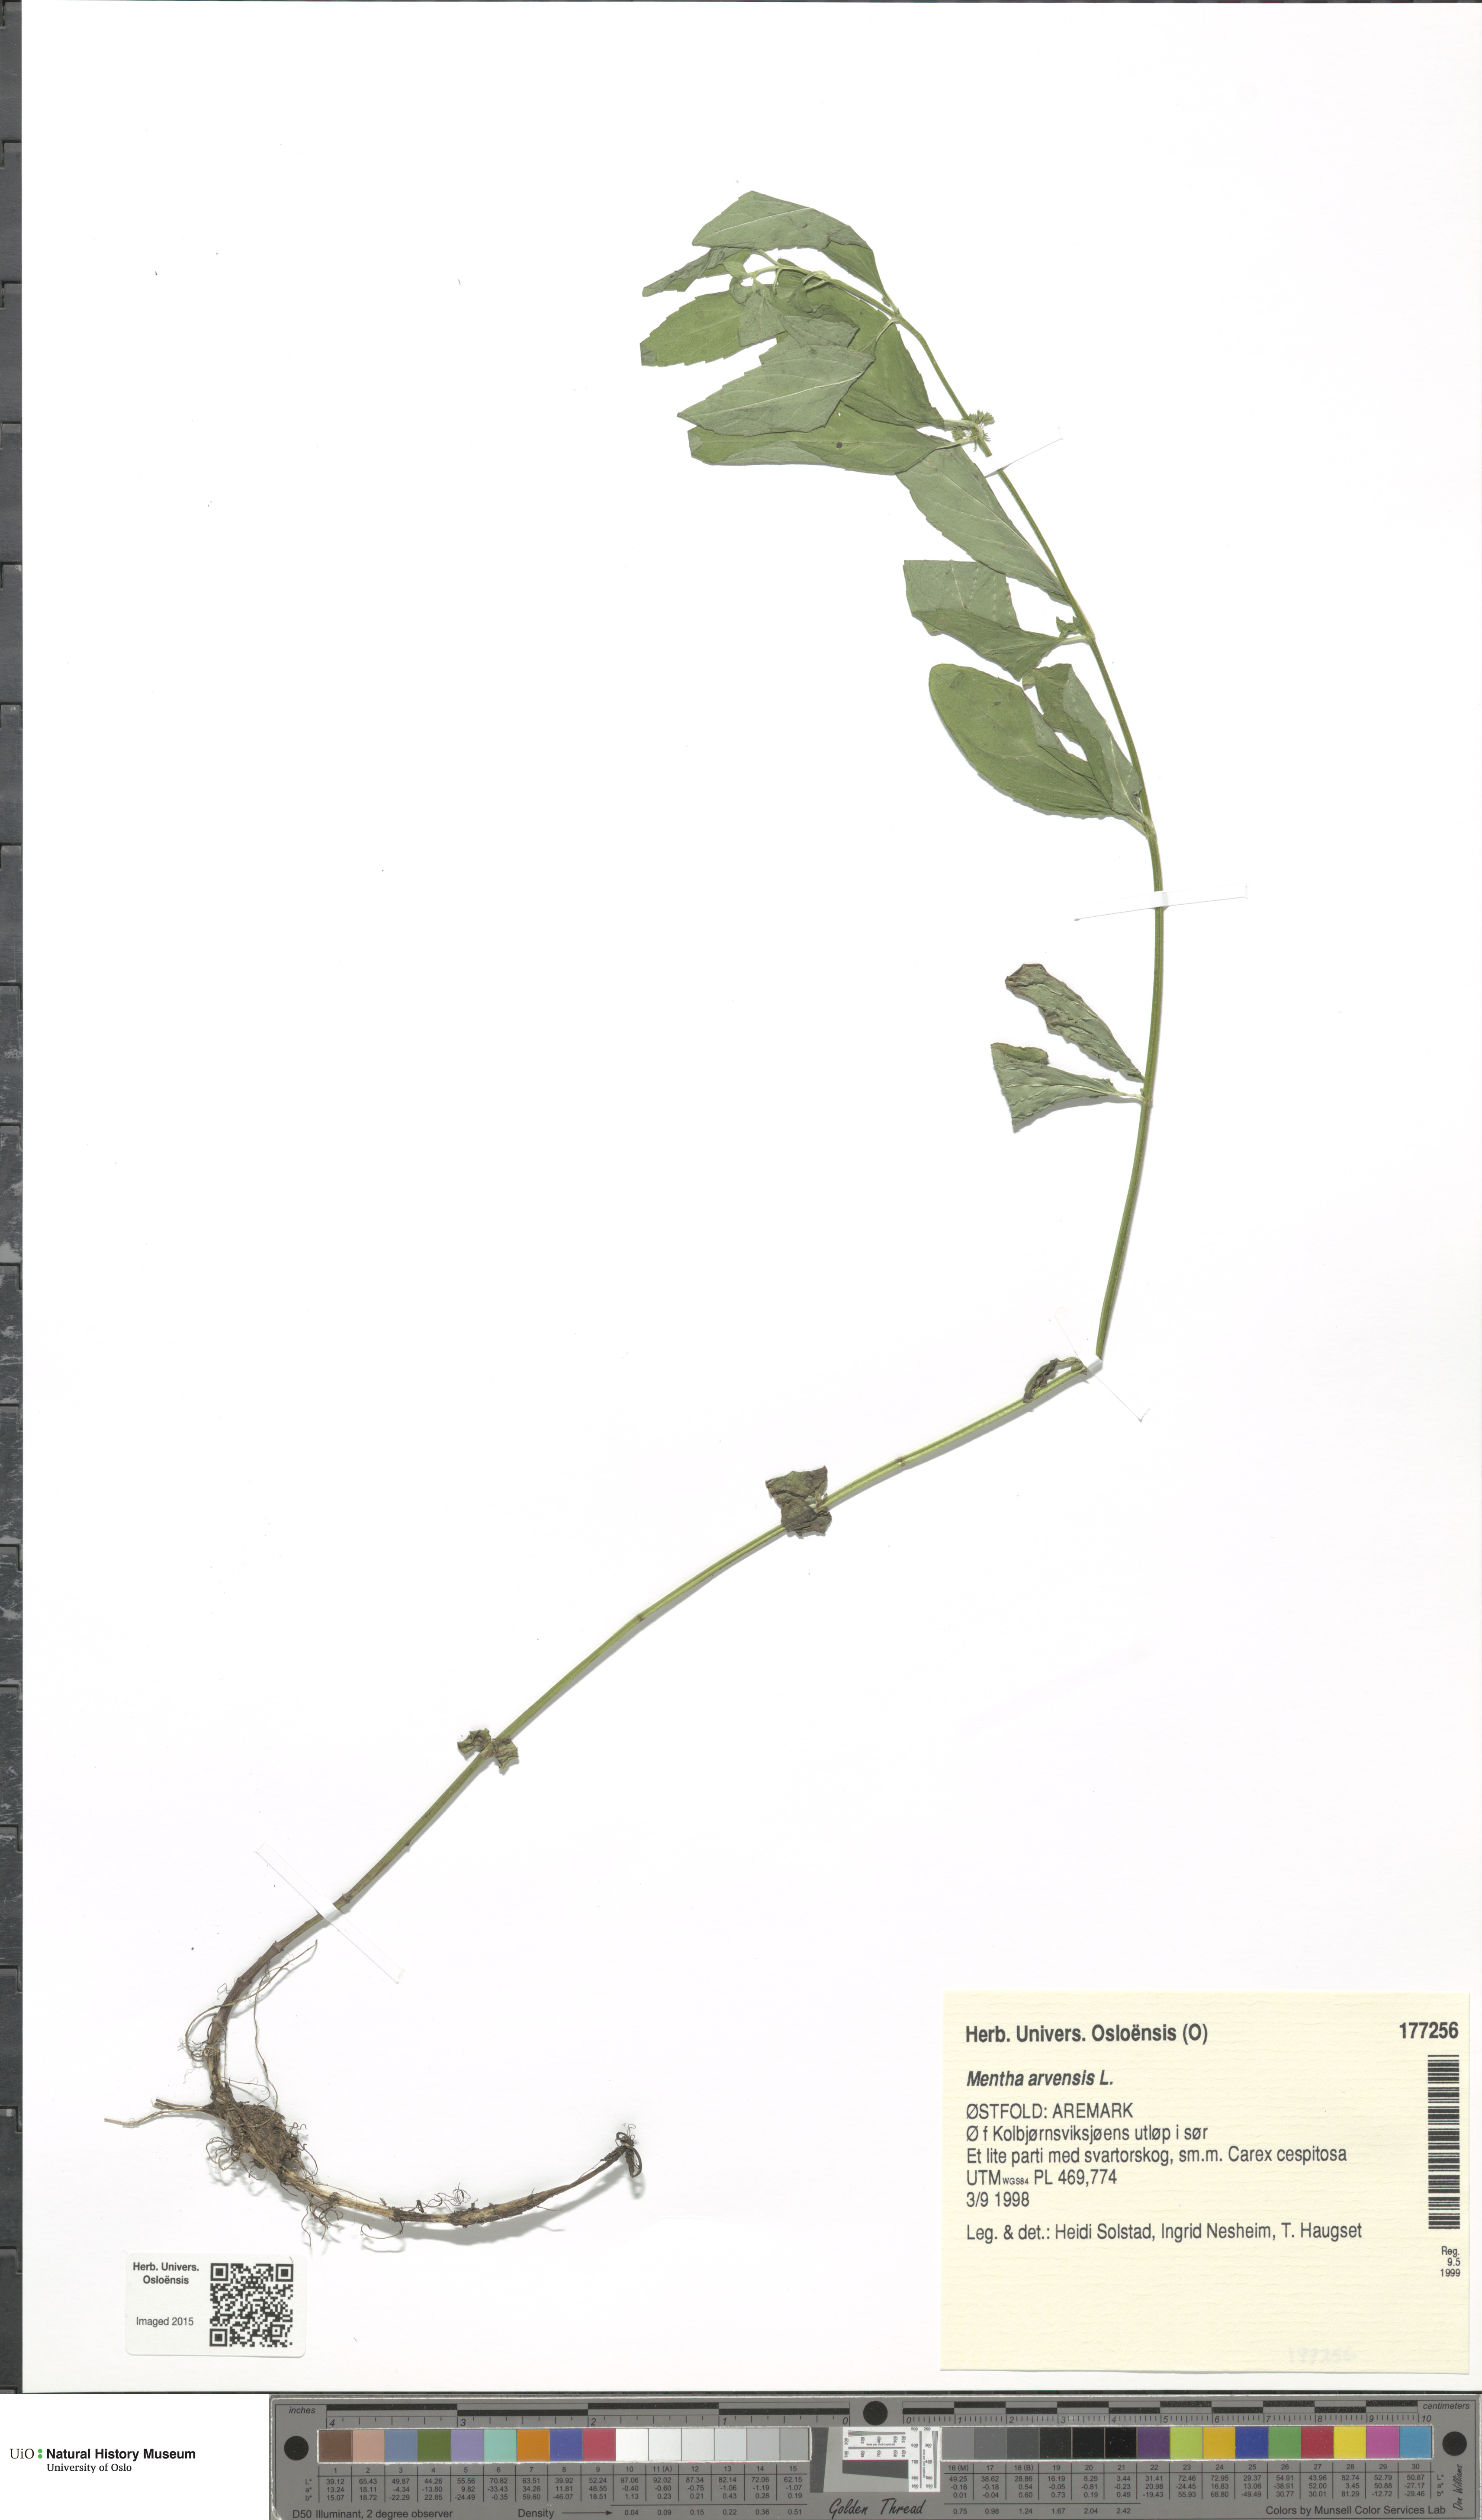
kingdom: Plantae
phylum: Tracheophyta
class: Magnoliopsida
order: Lamiales
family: Lamiaceae
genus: Mentha
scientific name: Mentha arvensis
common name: Corn mint
